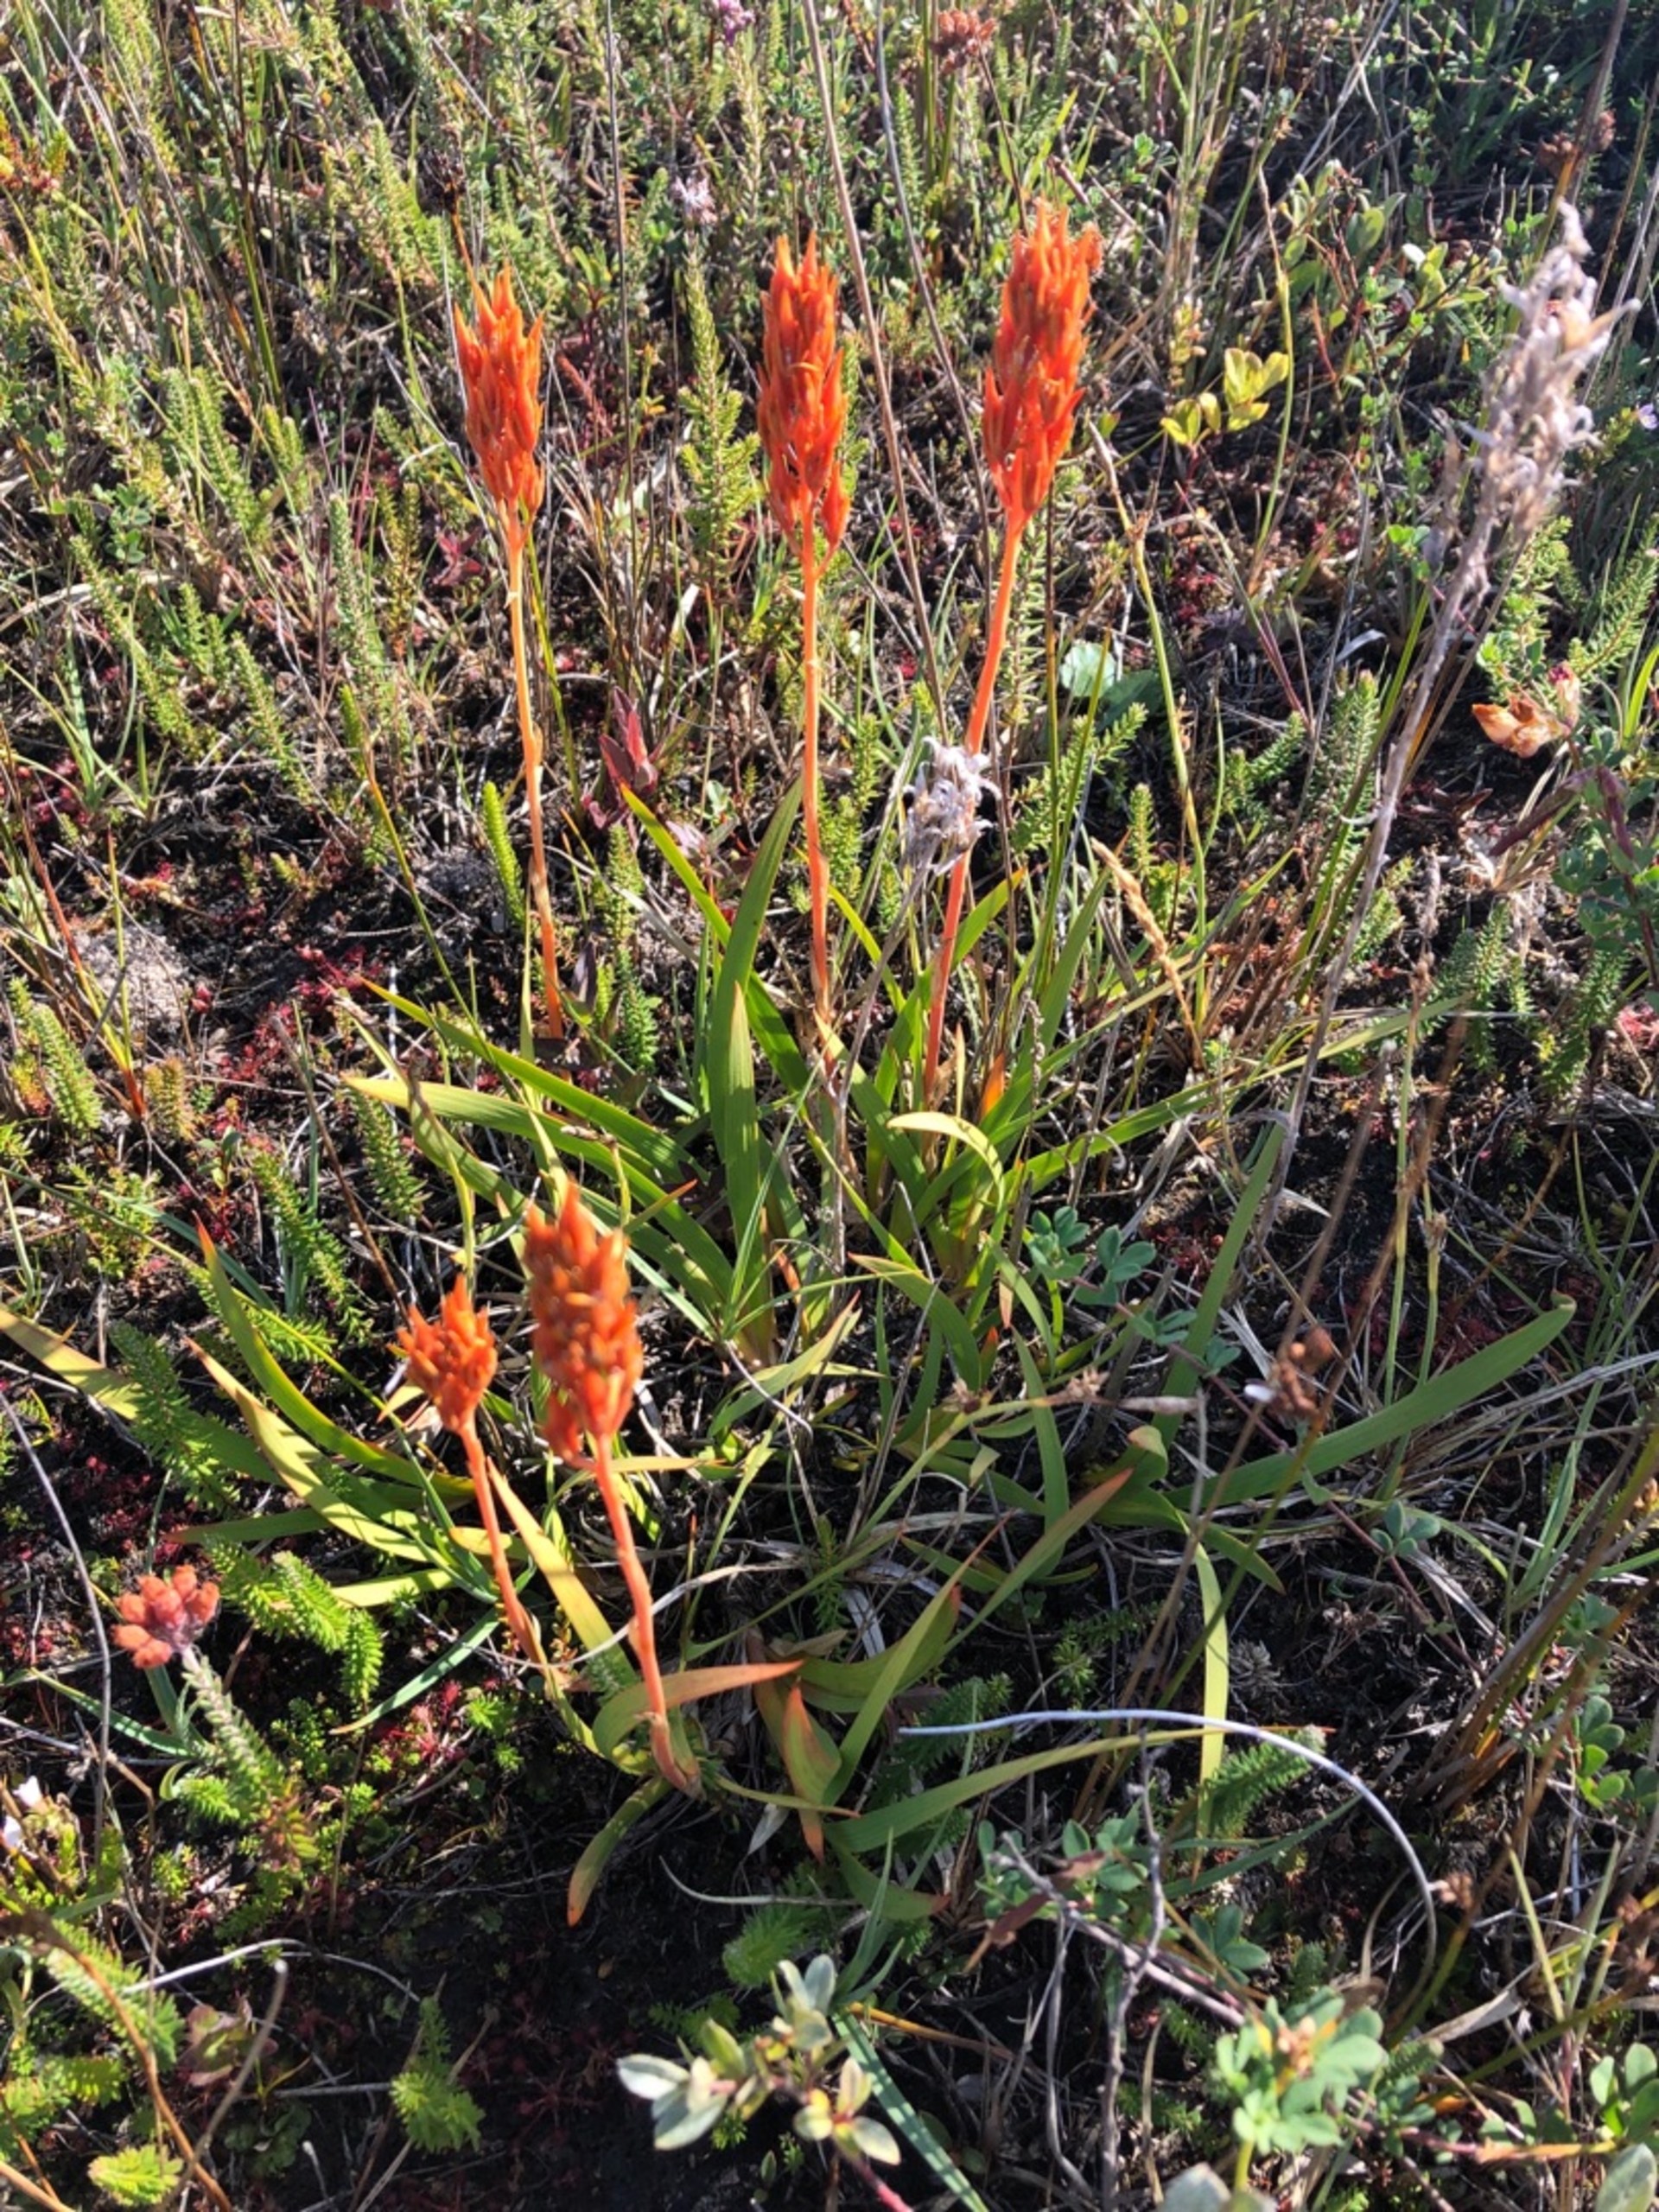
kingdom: Plantae
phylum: Tracheophyta
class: Liliopsida
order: Dioscoreales
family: Nartheciaceae
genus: Narthecium
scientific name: Narthecium ossifragum
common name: Benbræk
